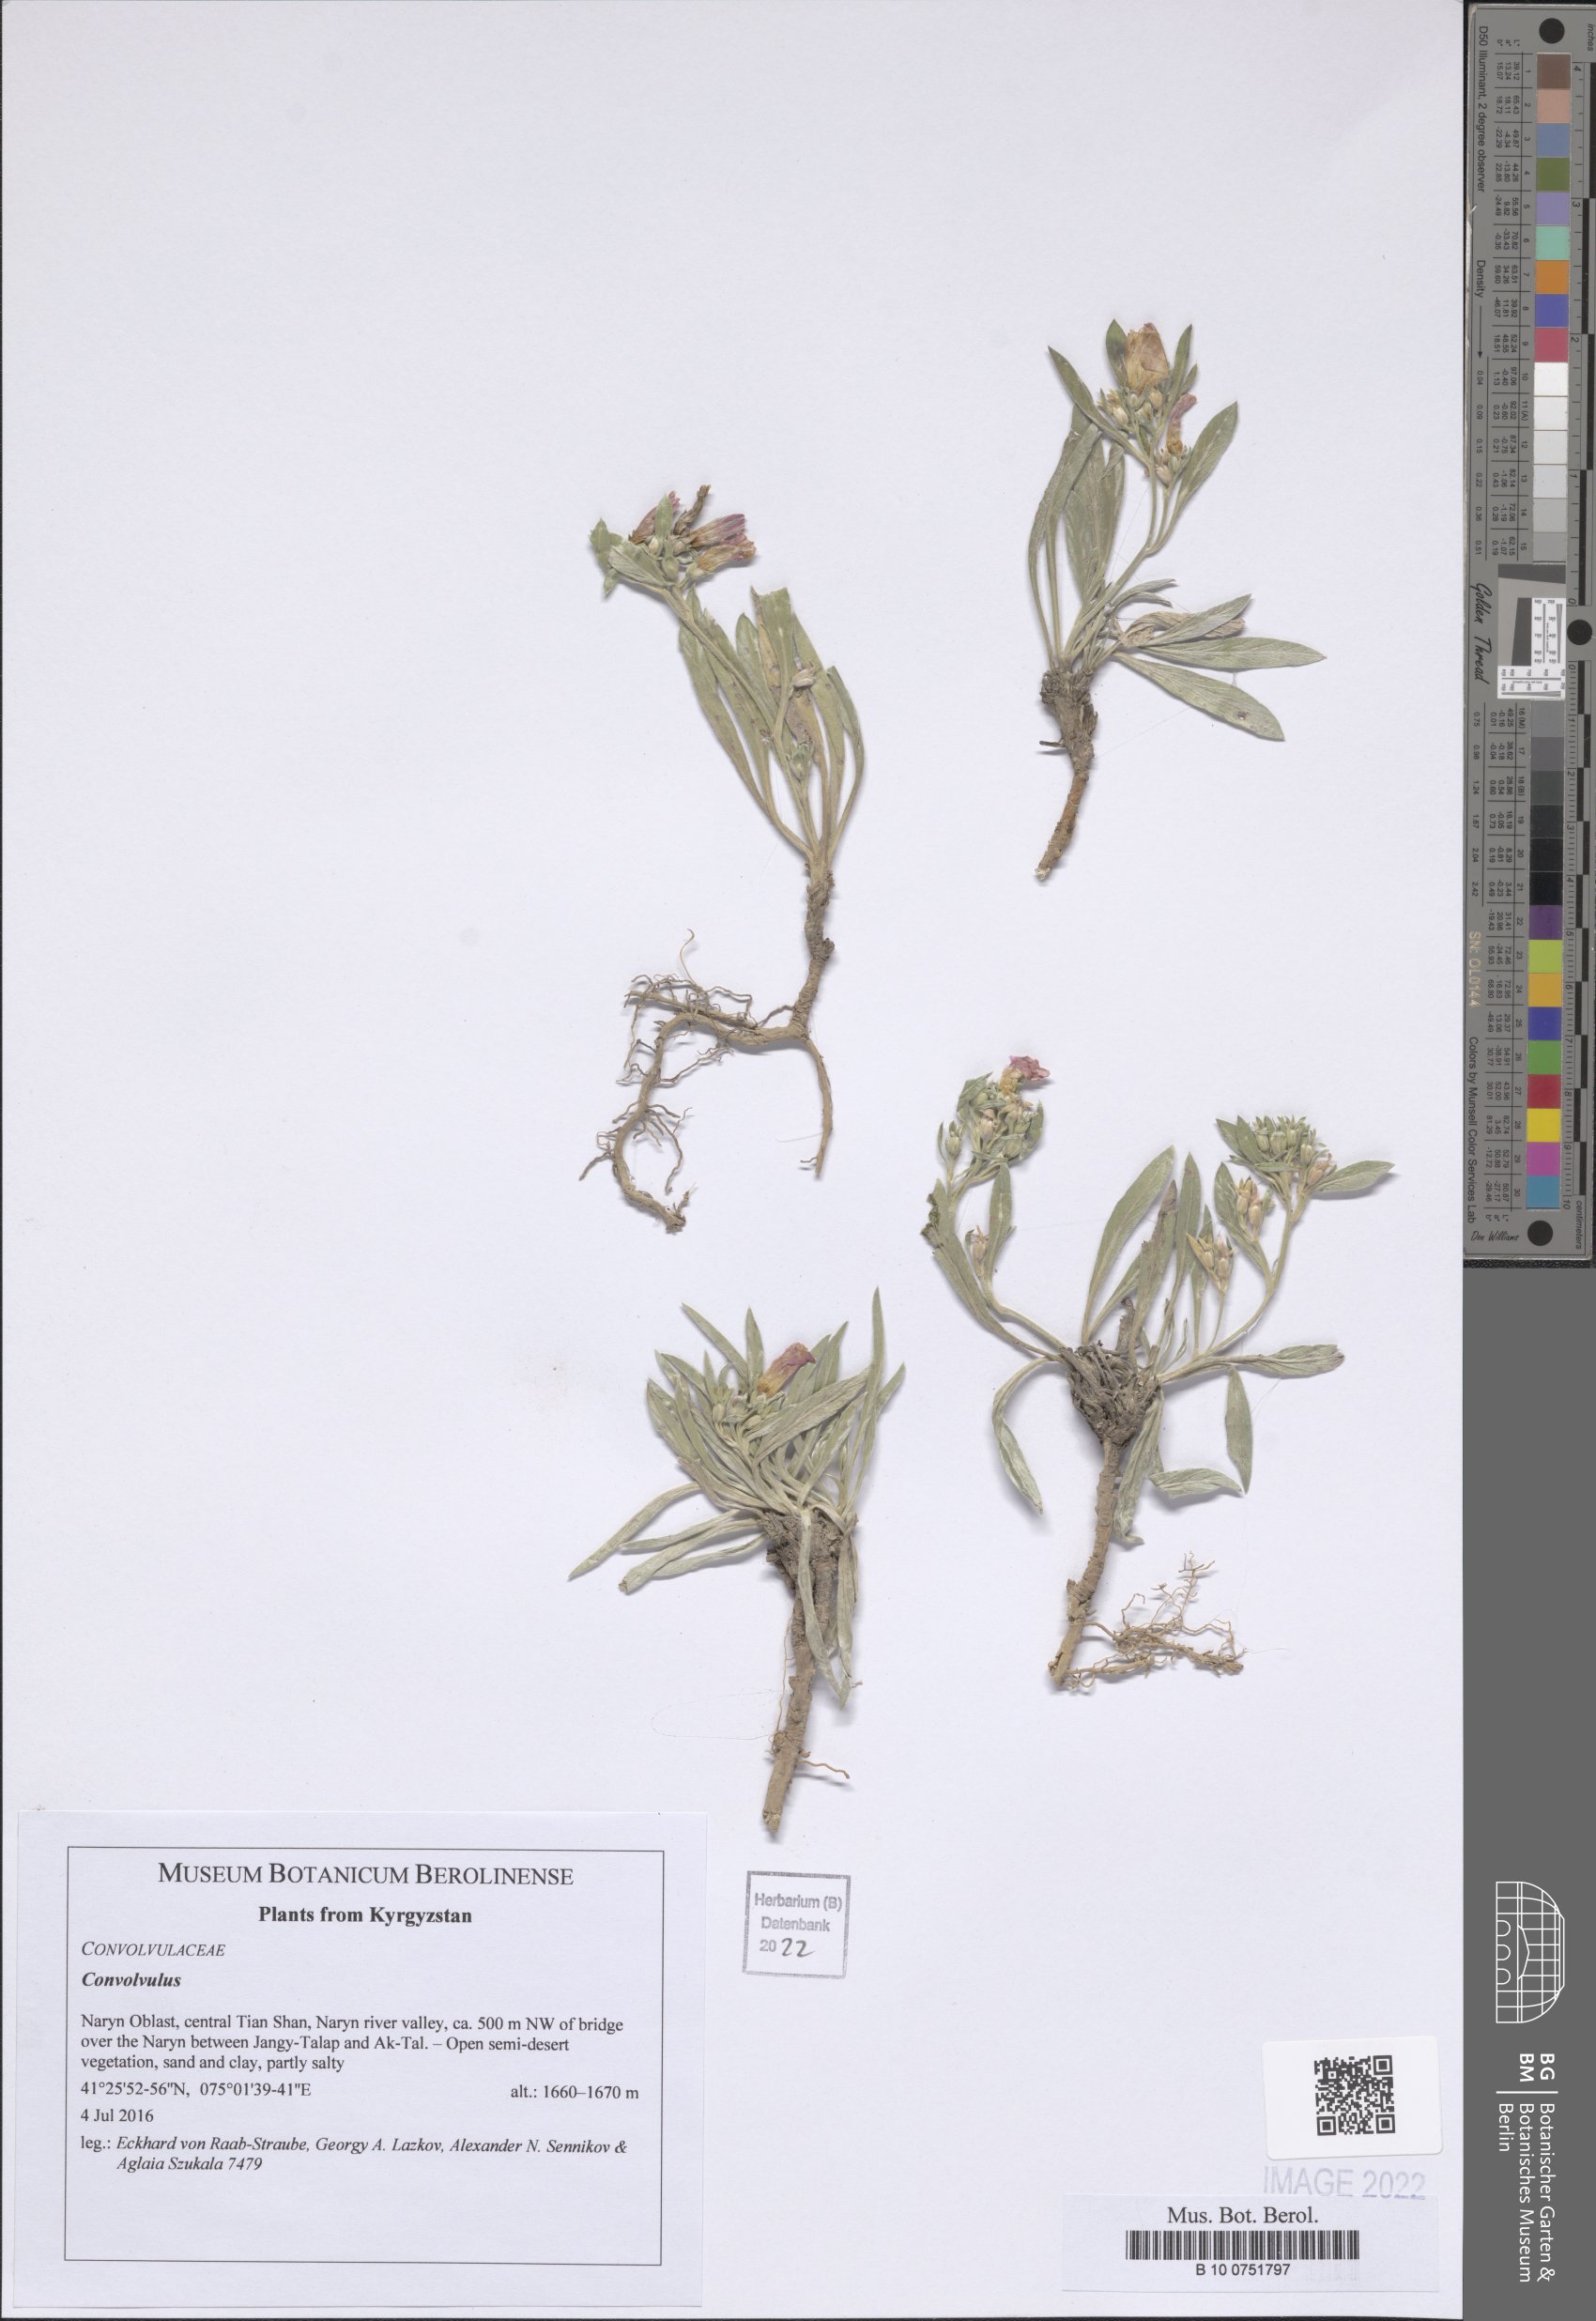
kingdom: Plantae
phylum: Tracheophyta
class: Magnoliopsida
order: Solanales
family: Convolvulaceae
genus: Convolvulus
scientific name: Convolvulus
